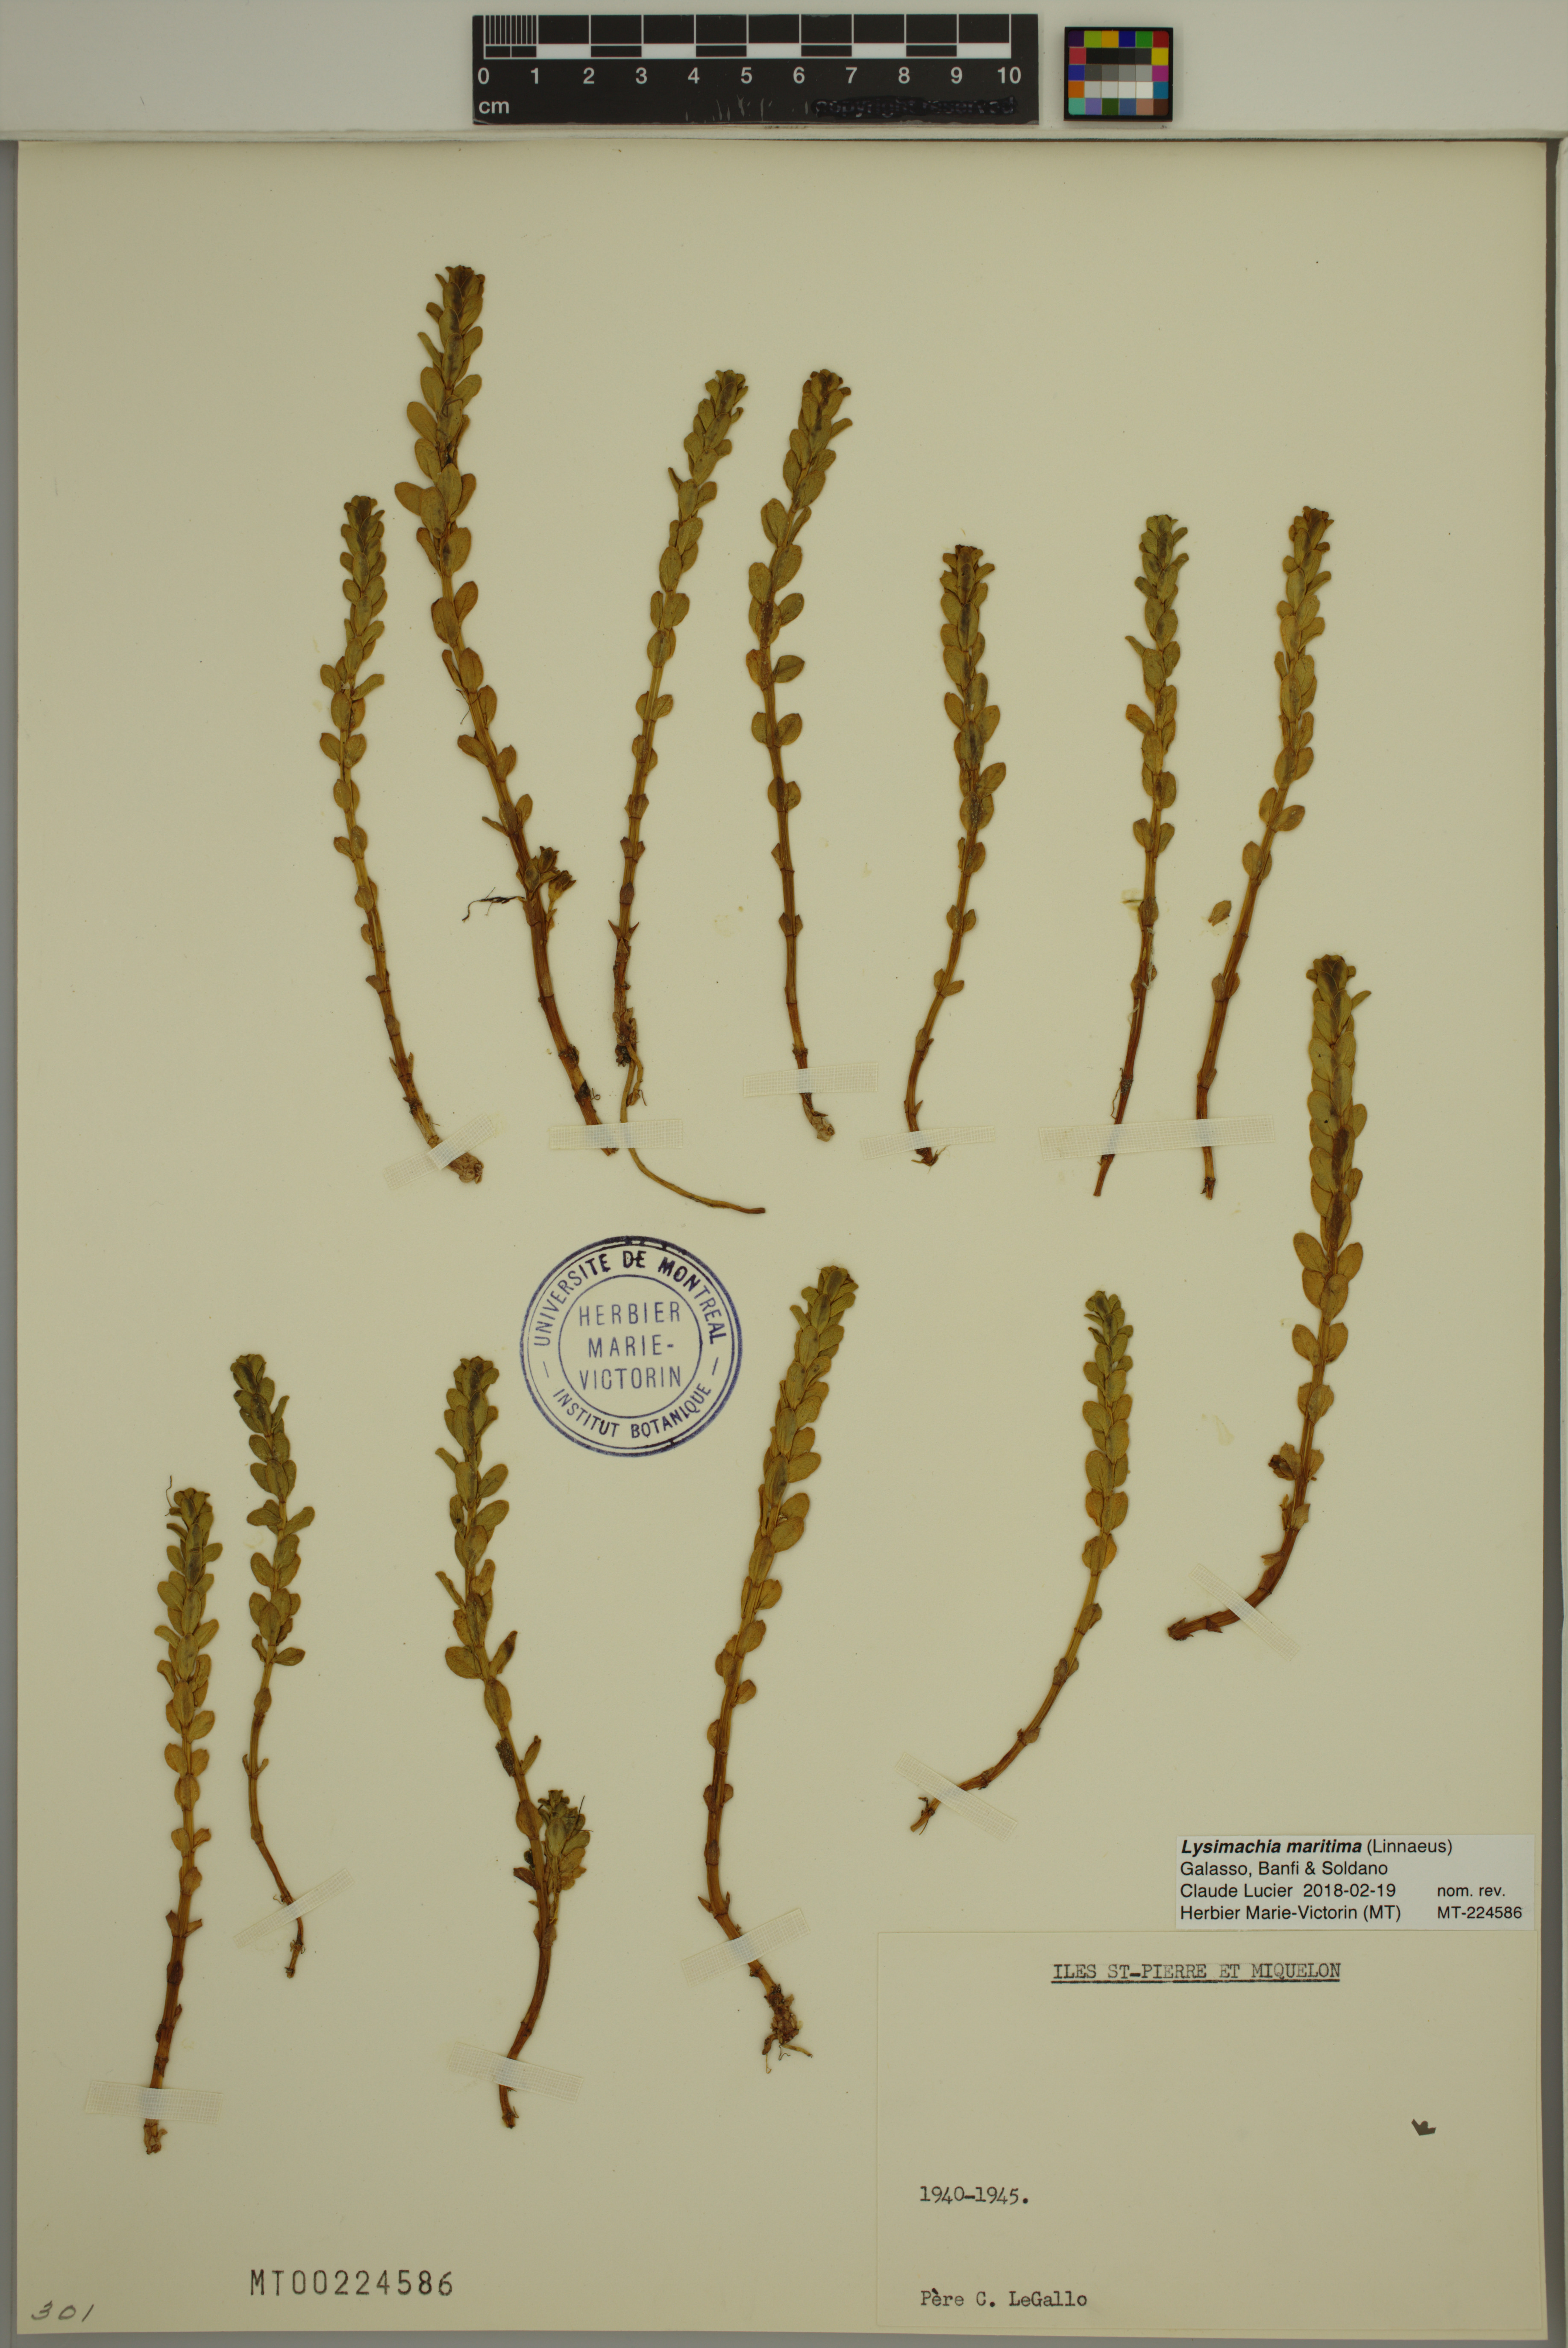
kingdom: Plantae
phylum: Tracheophyta
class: Magnoliopsida
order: Ericales
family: Primulaceae
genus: Lysimachia
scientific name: Lysimachia maritima
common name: Sea milkwort
